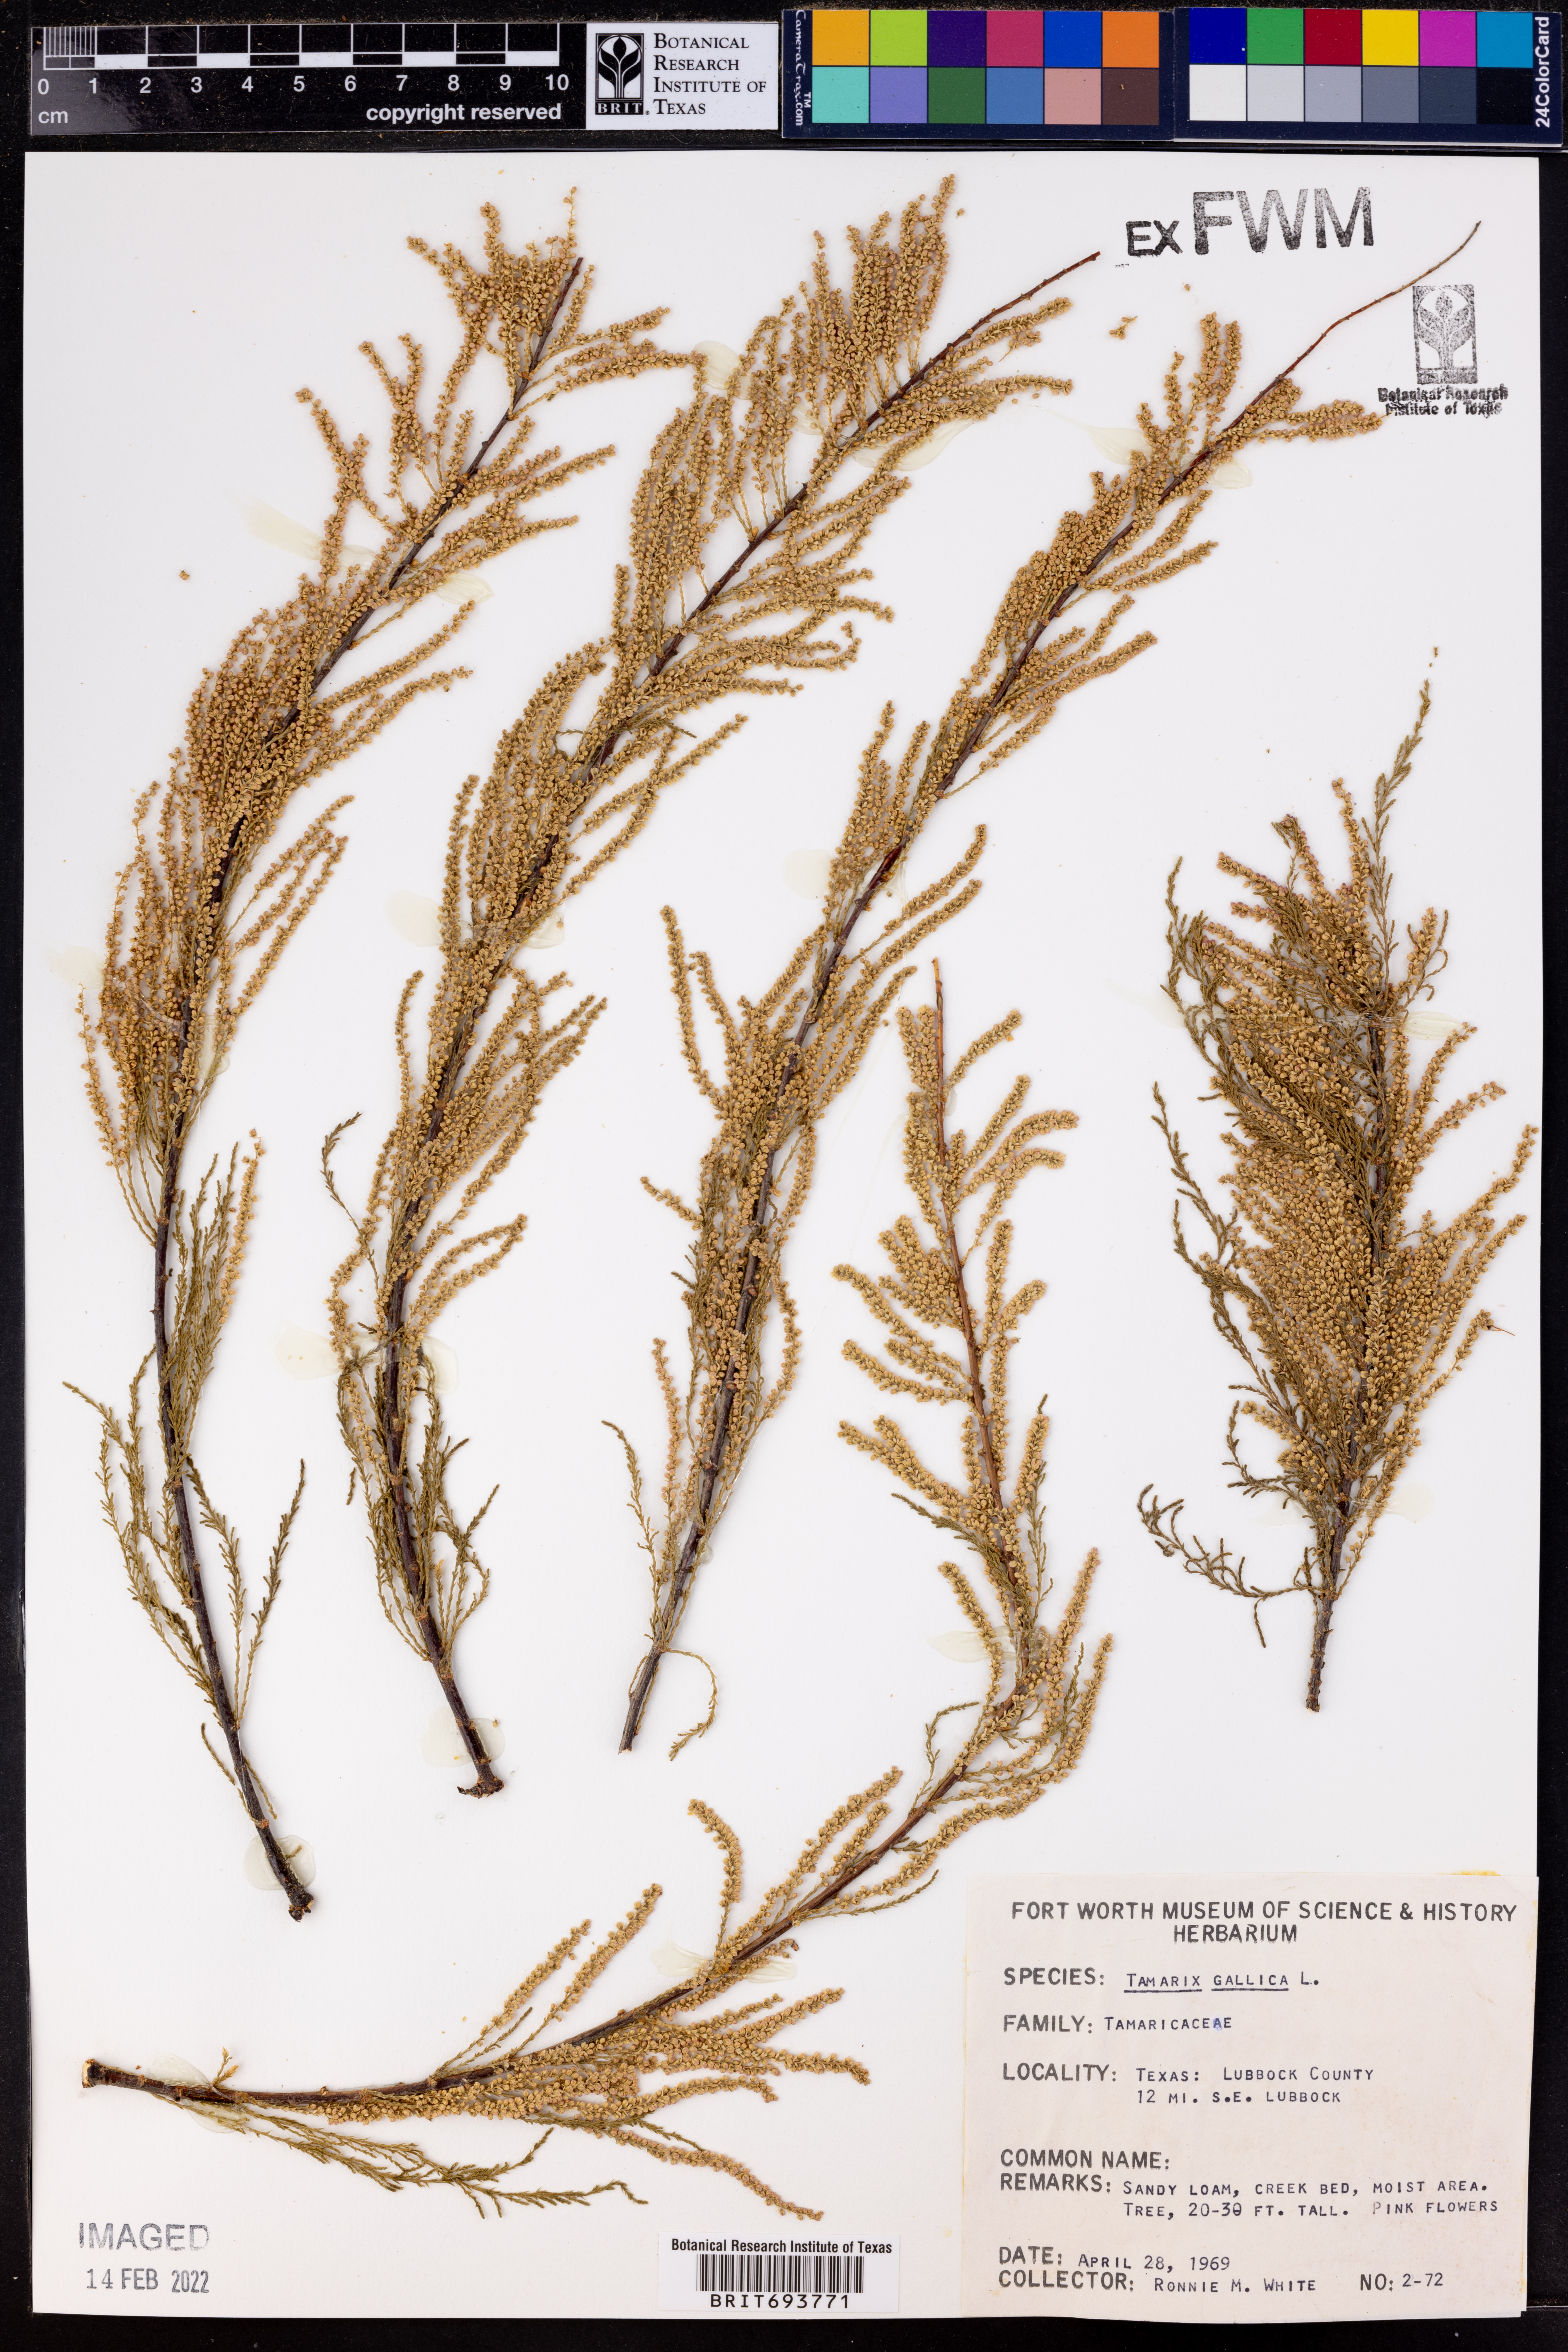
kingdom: Plantae
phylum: Tracheophyta
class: Magnoliopsida
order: Caryophyllales
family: Tamaricaceae
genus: Tamarix
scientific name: Tamarix gallica
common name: Tamarisk
